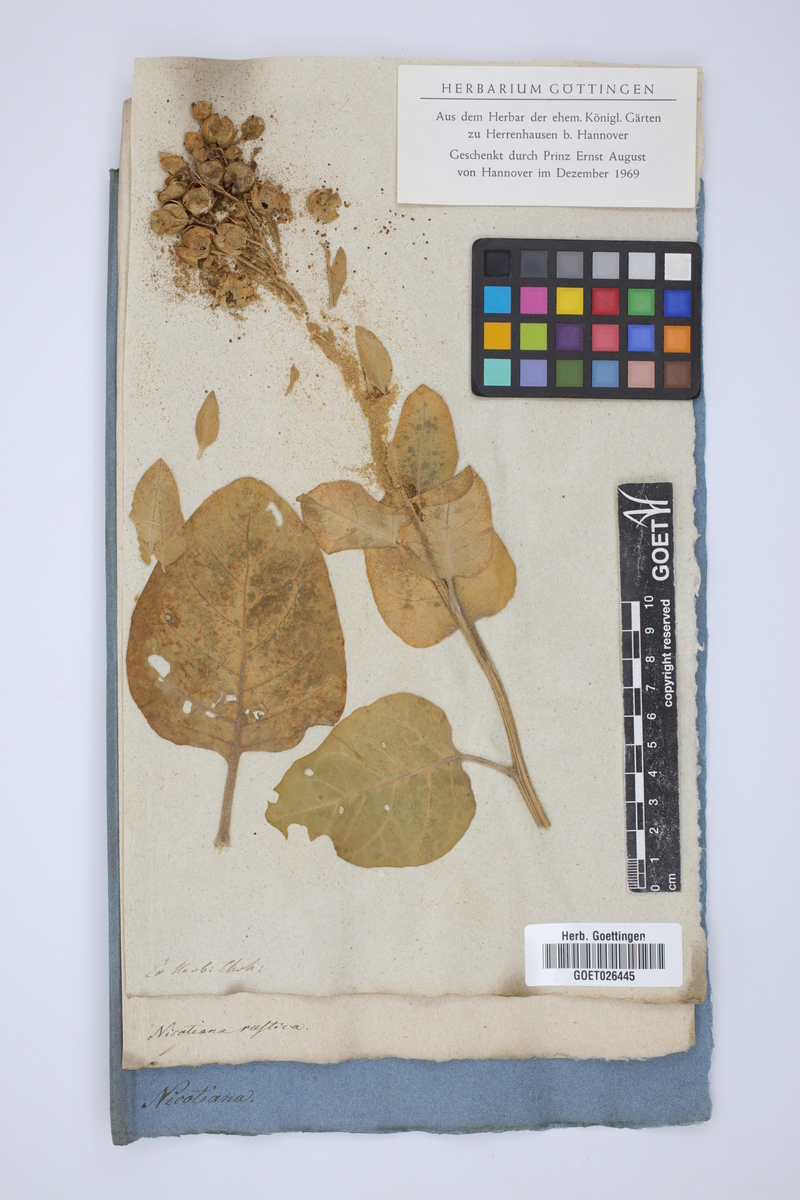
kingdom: Plantae
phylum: Tracheophyta
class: Magnoliopsida
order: Solanales
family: Solanaceae
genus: Nicotiana
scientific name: Nicotiana rustica
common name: Wild tobacco
